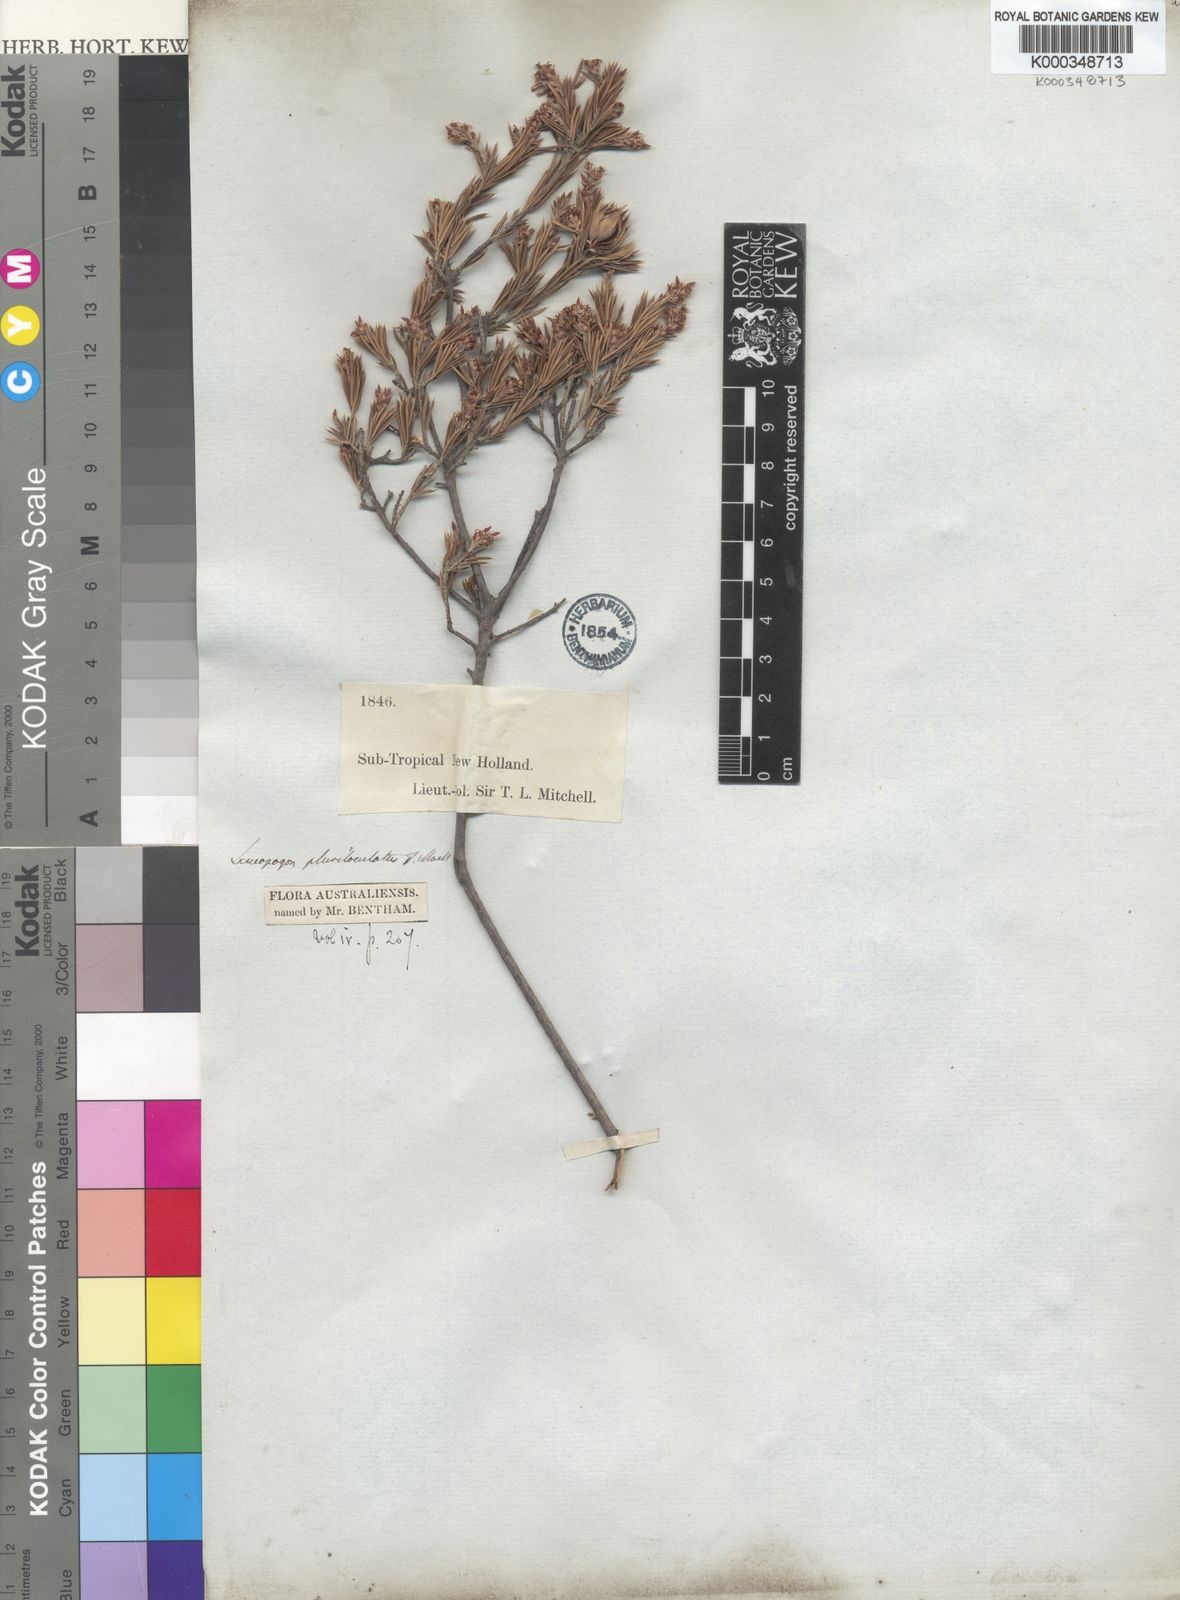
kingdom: Plantae
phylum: Tracheophyta
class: Magnoliopsida
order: Ericales
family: Ericaceae
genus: Lissanthe
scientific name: Lissanthe pluriloculata
